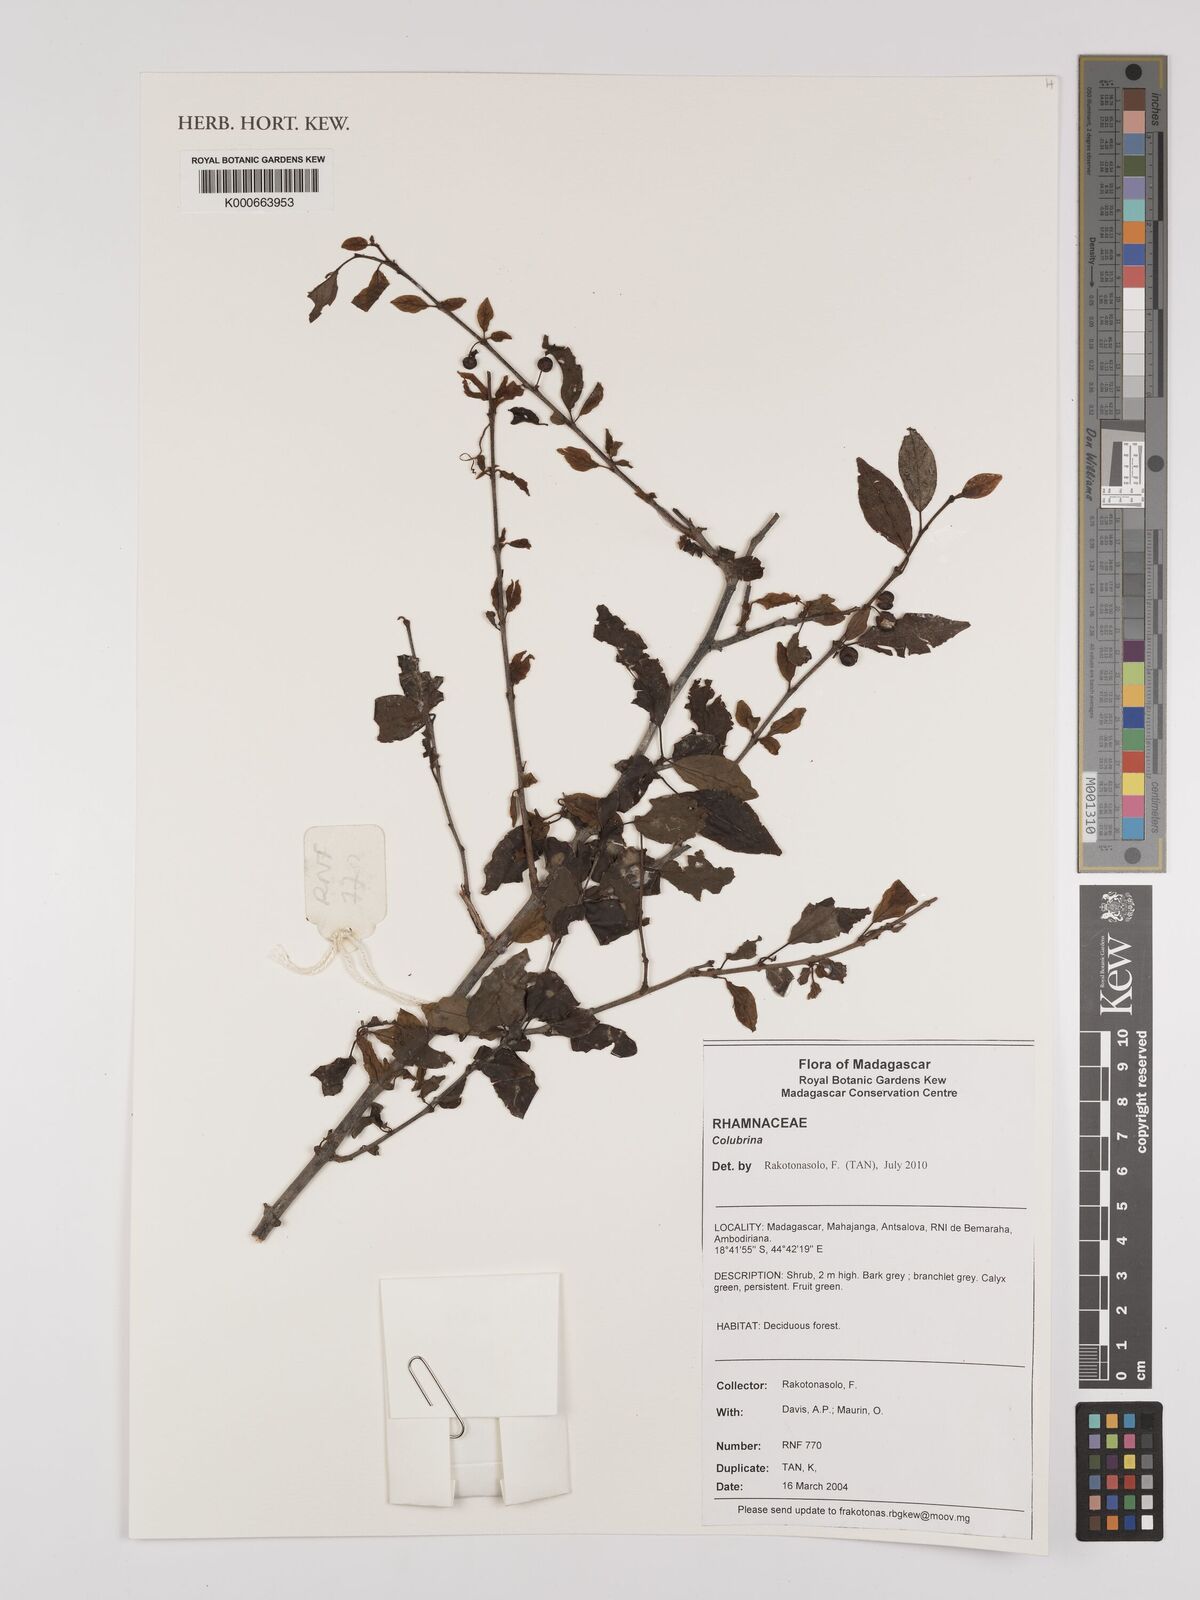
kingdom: Plantae
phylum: Tracheophyta
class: Magnoliopsida
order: Rosales
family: Rhamnaceae
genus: Colubrina
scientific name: Colubrina
